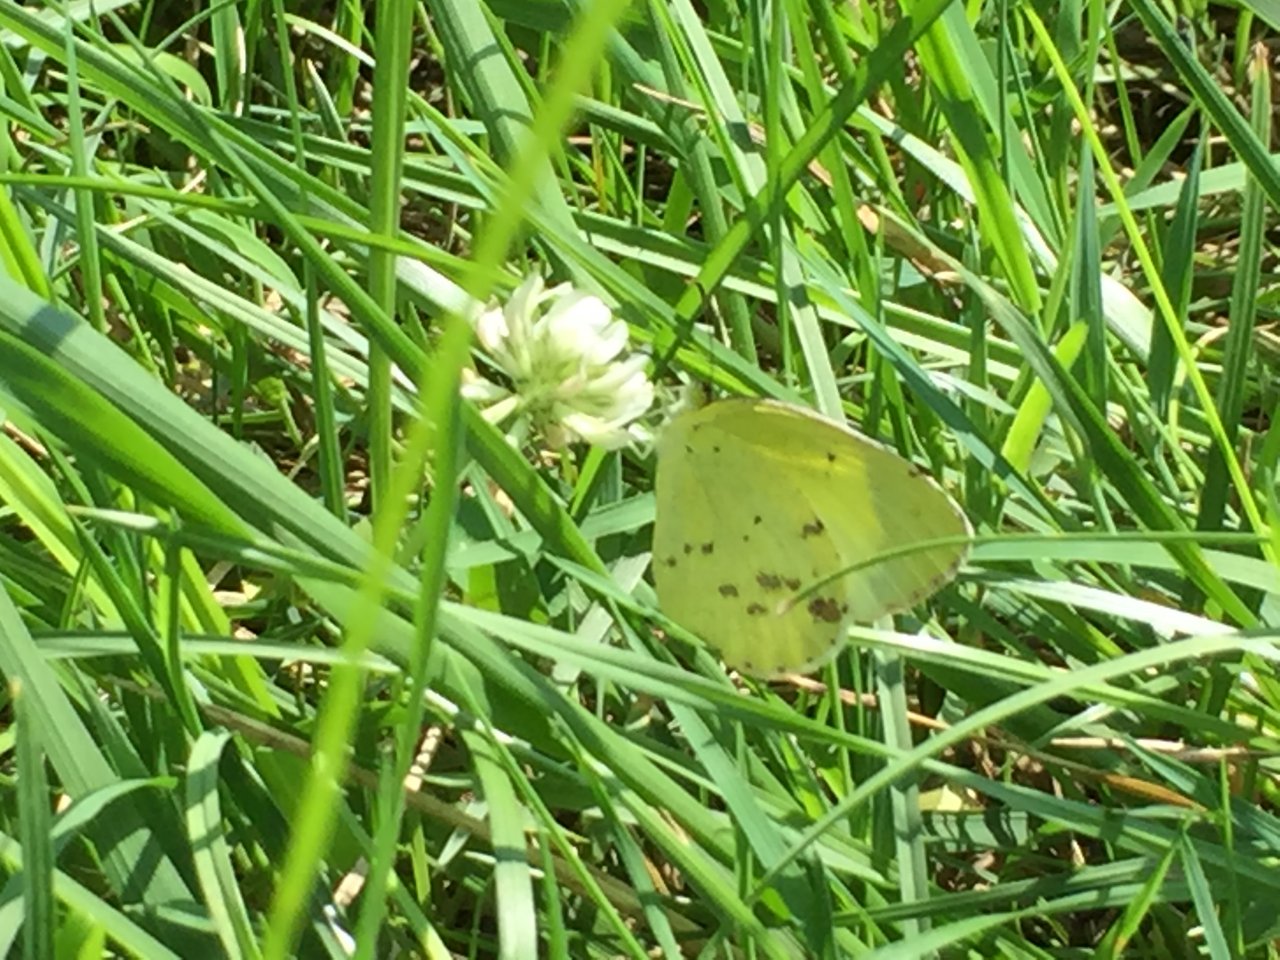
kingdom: Animalia
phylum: Arthropoda
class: Insecta
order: Lepidoptera
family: Pieridae
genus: Pyrisitia
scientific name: Pyrisitia lisa
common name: Little Yellow
